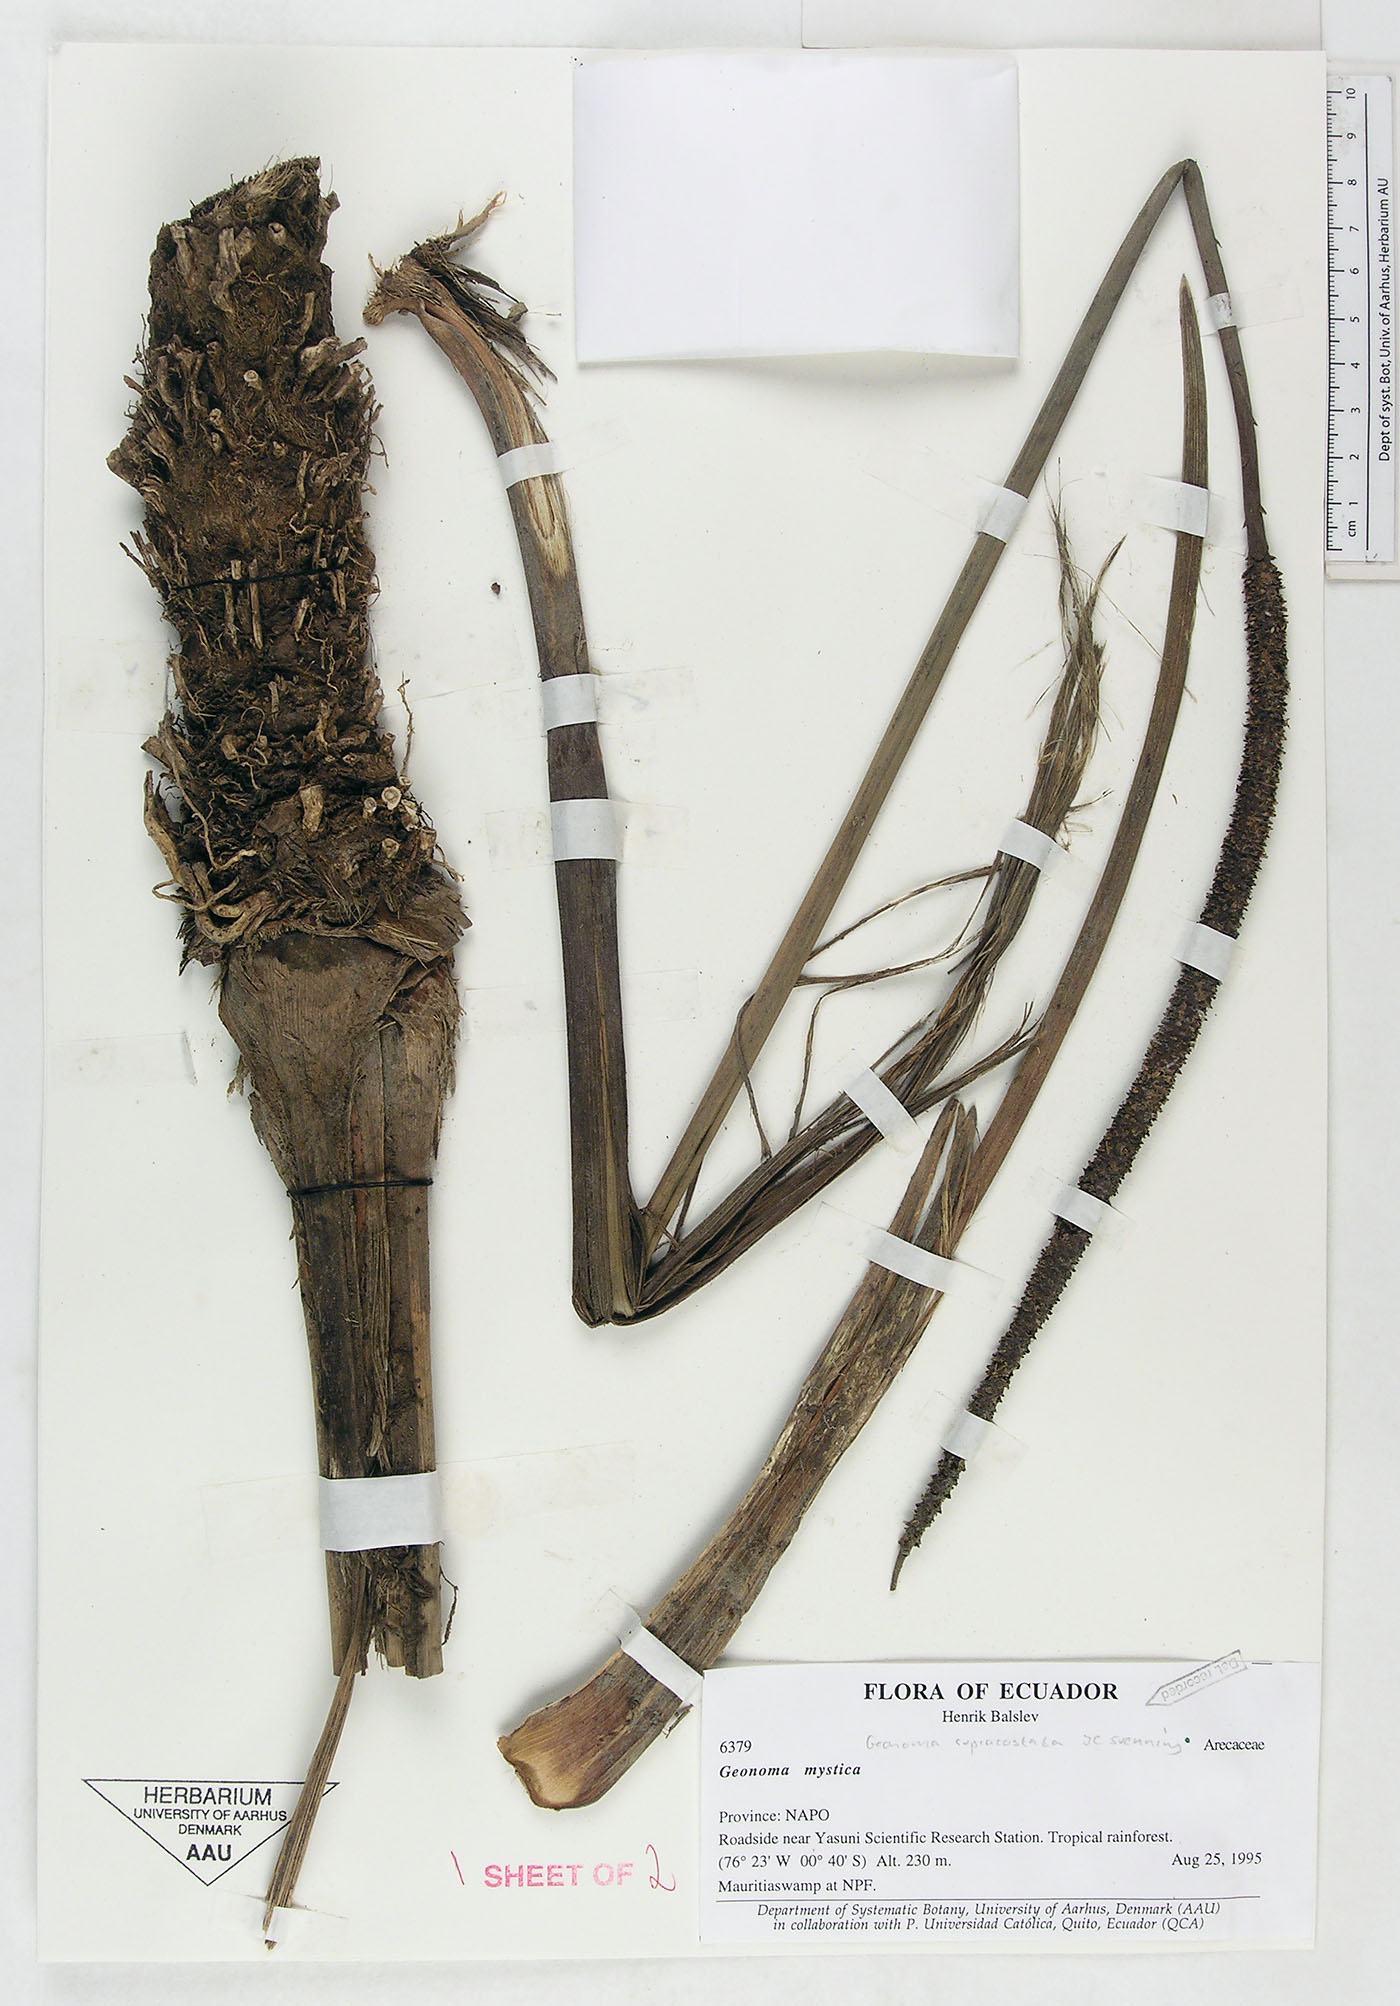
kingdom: Plantae
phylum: Tracheophyta
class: Liliopsida
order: Arecales
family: Arecaceae
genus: Geonoma
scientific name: Geonoma macrostachys
